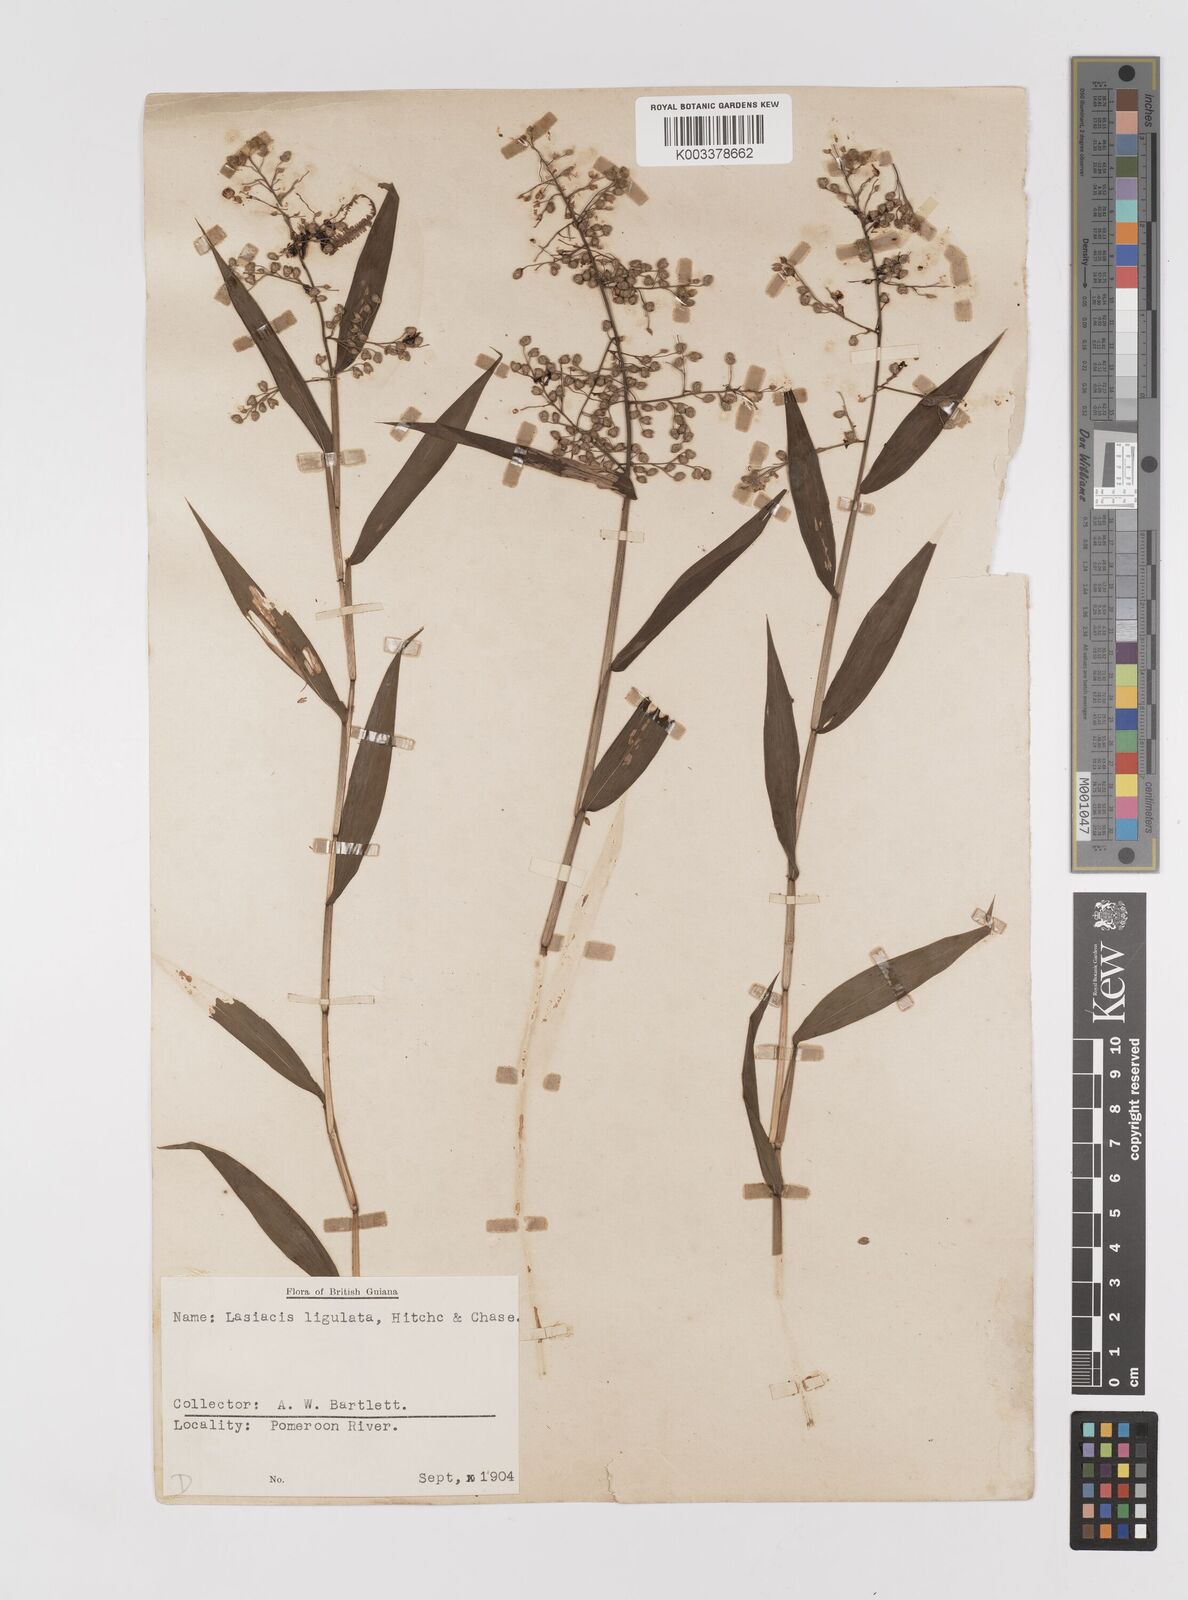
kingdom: Plantae
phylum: Tracheophyta
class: Liliopsida
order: Poales
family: Poaceae
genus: Lasiacis
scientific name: Lasiacis ligulata
